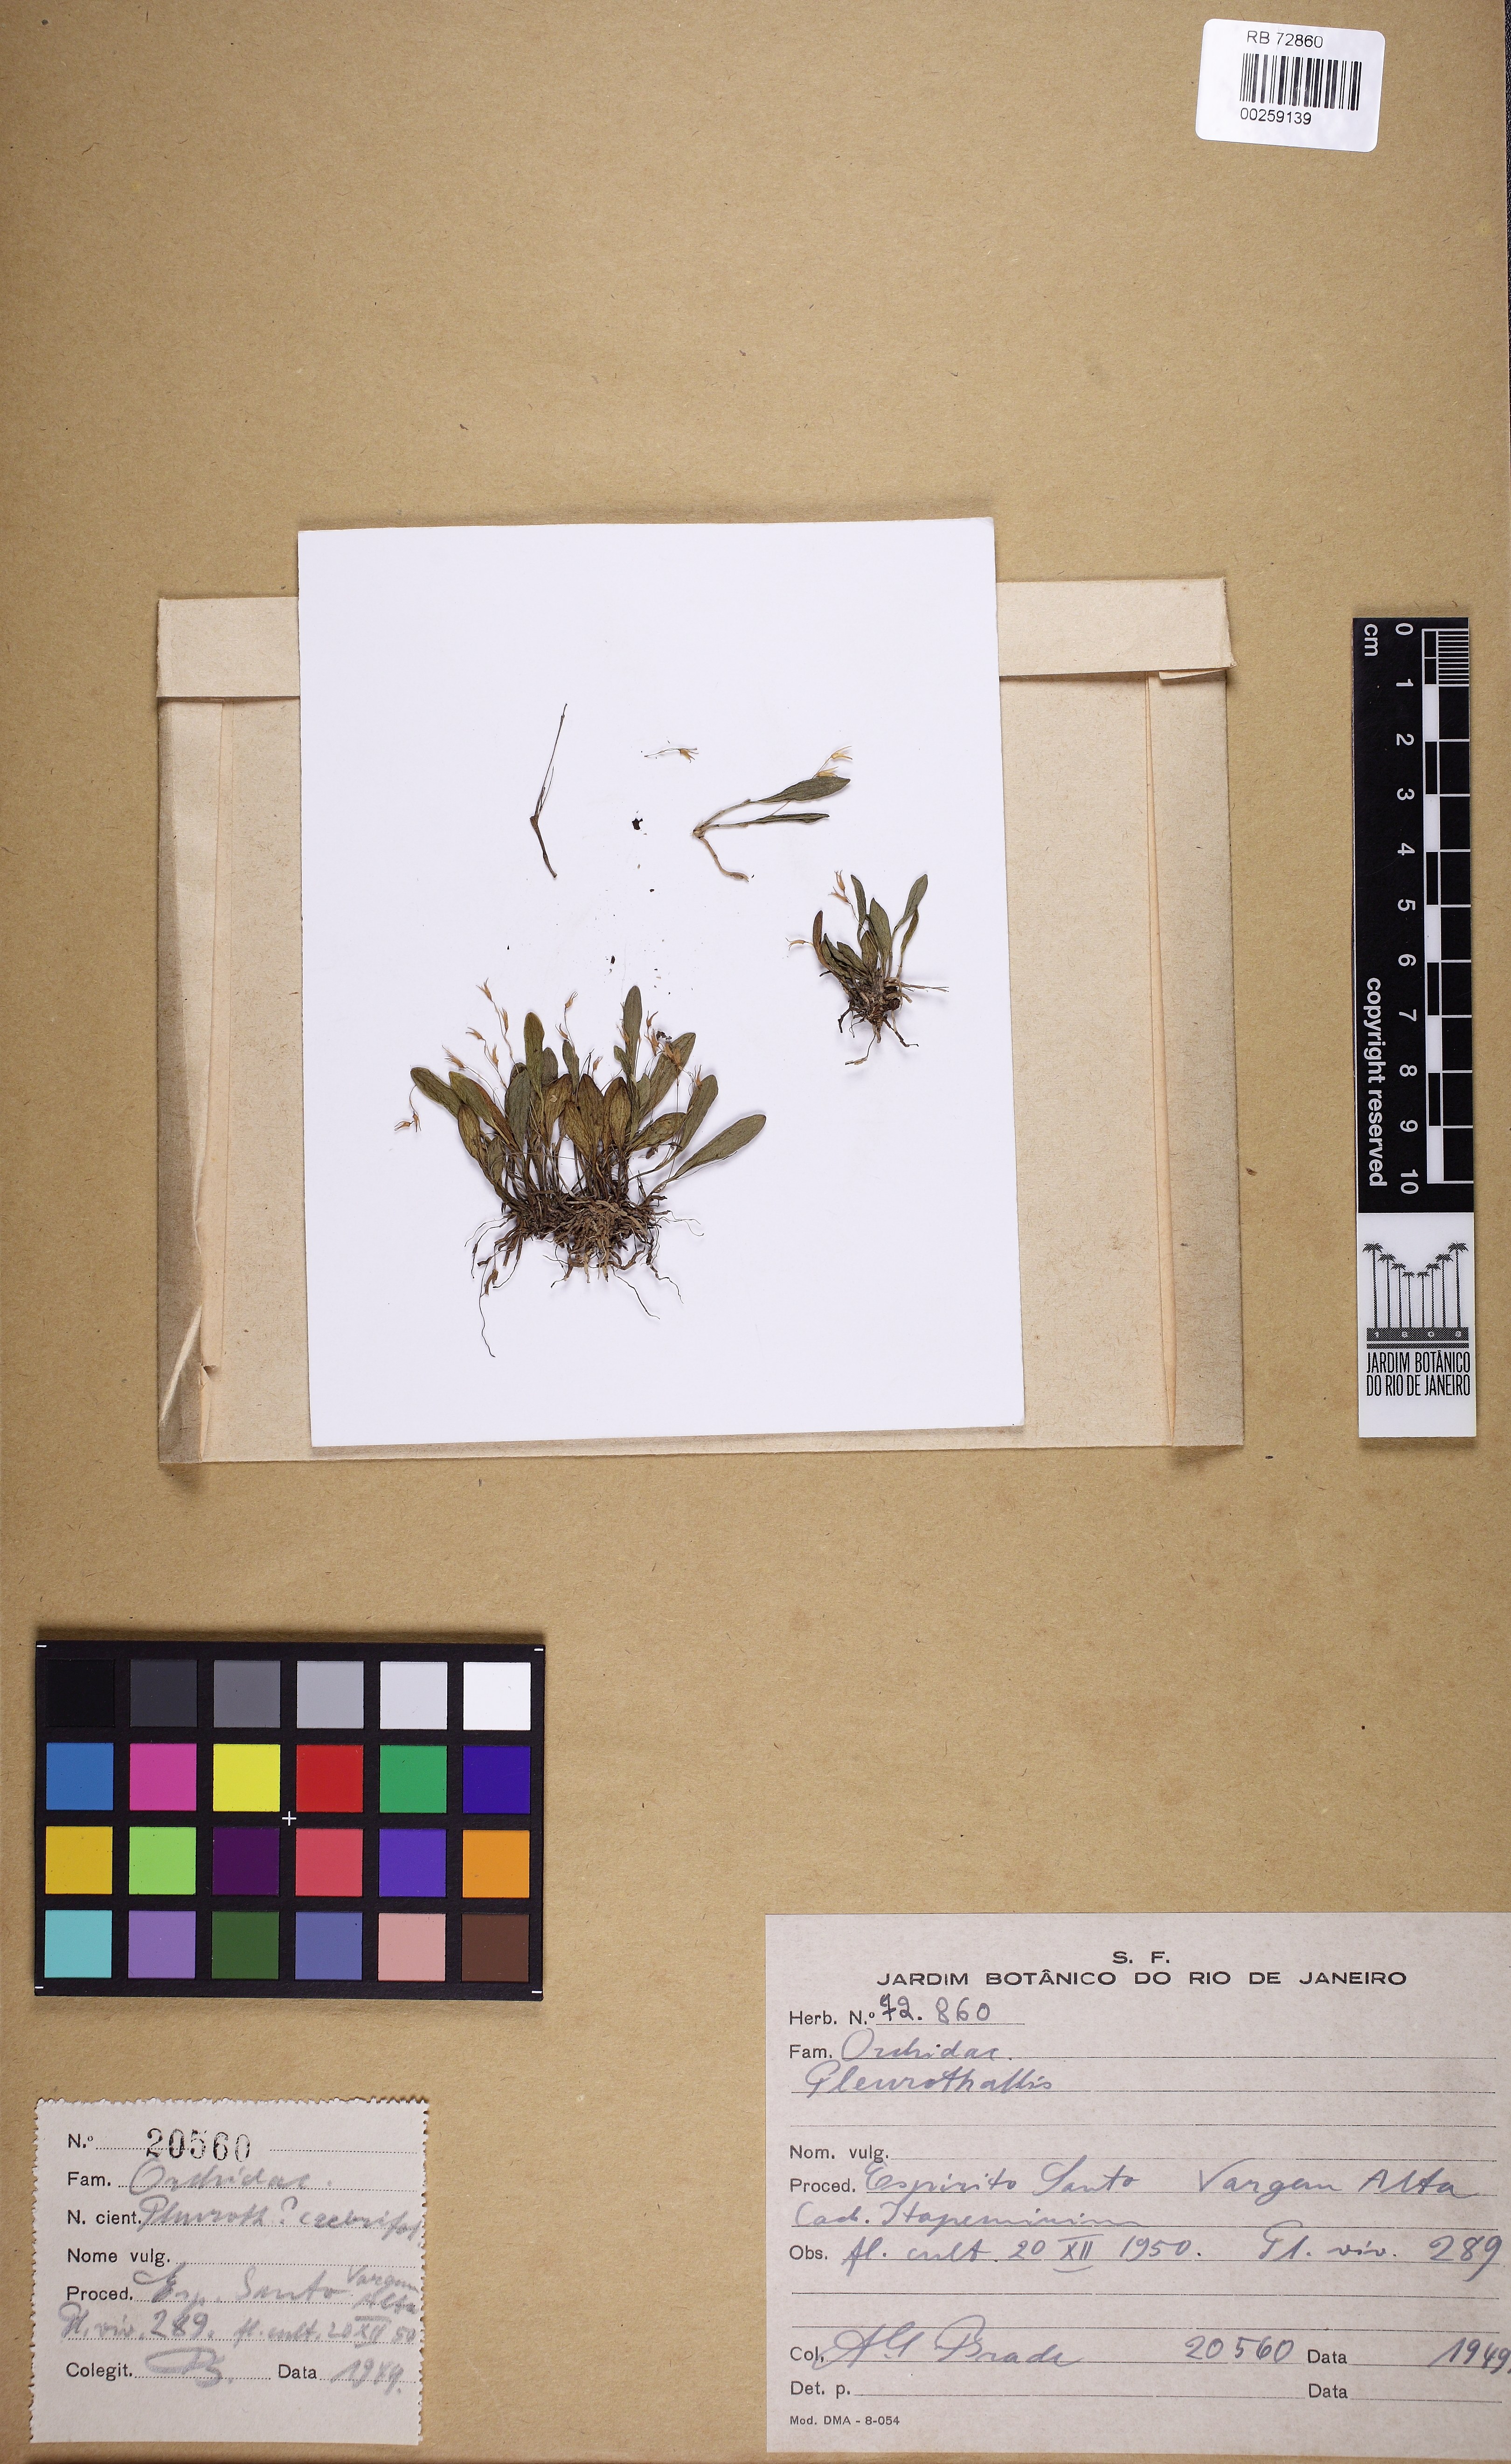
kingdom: Plantae
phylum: Tracheophyta
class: Liliopsida
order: Asparagales
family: Orchidaceae
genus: Anathallis
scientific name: Anathallis aristulata
